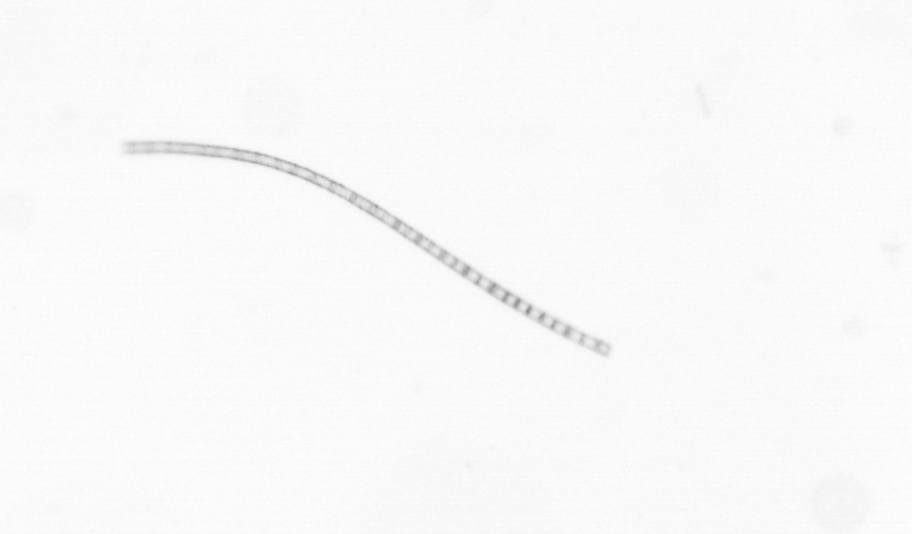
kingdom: Chromista
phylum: Ochrophyta
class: Bacillariophyceae
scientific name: Bacillariophyceae
